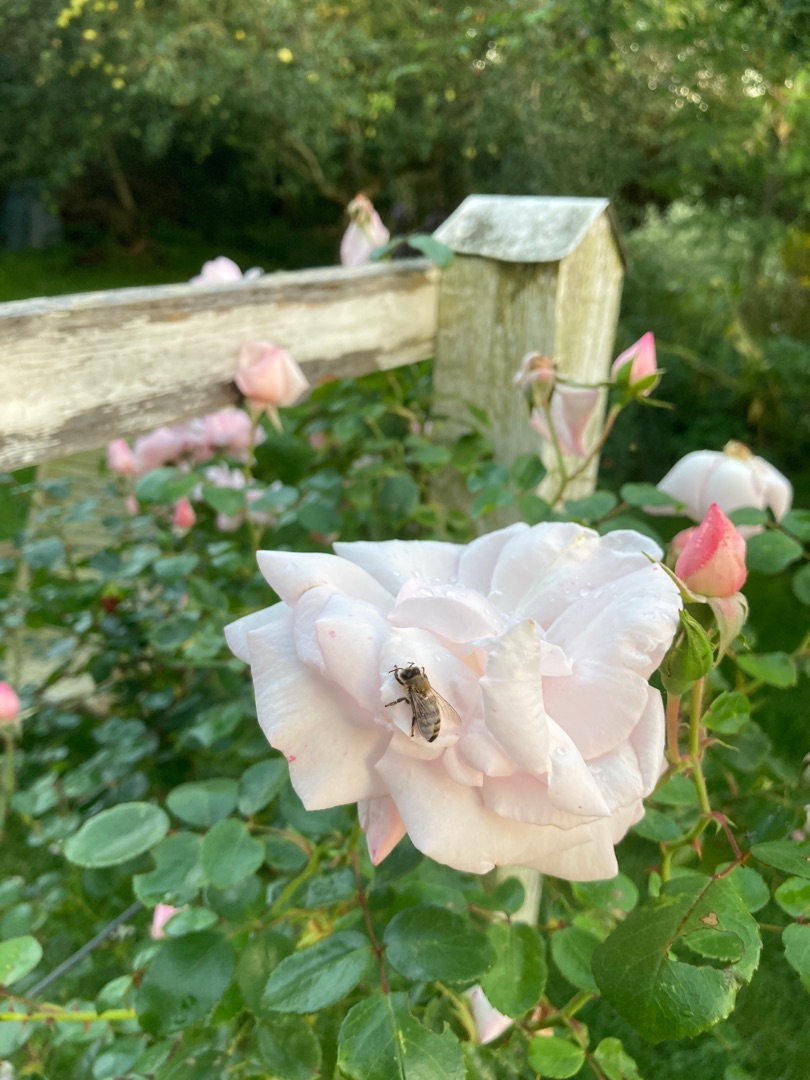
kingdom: Animalia
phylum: Arthropoda
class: Insecta
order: Hymenoptera
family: Apidae
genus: Apis
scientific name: Apis mellifera
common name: Honningbi
